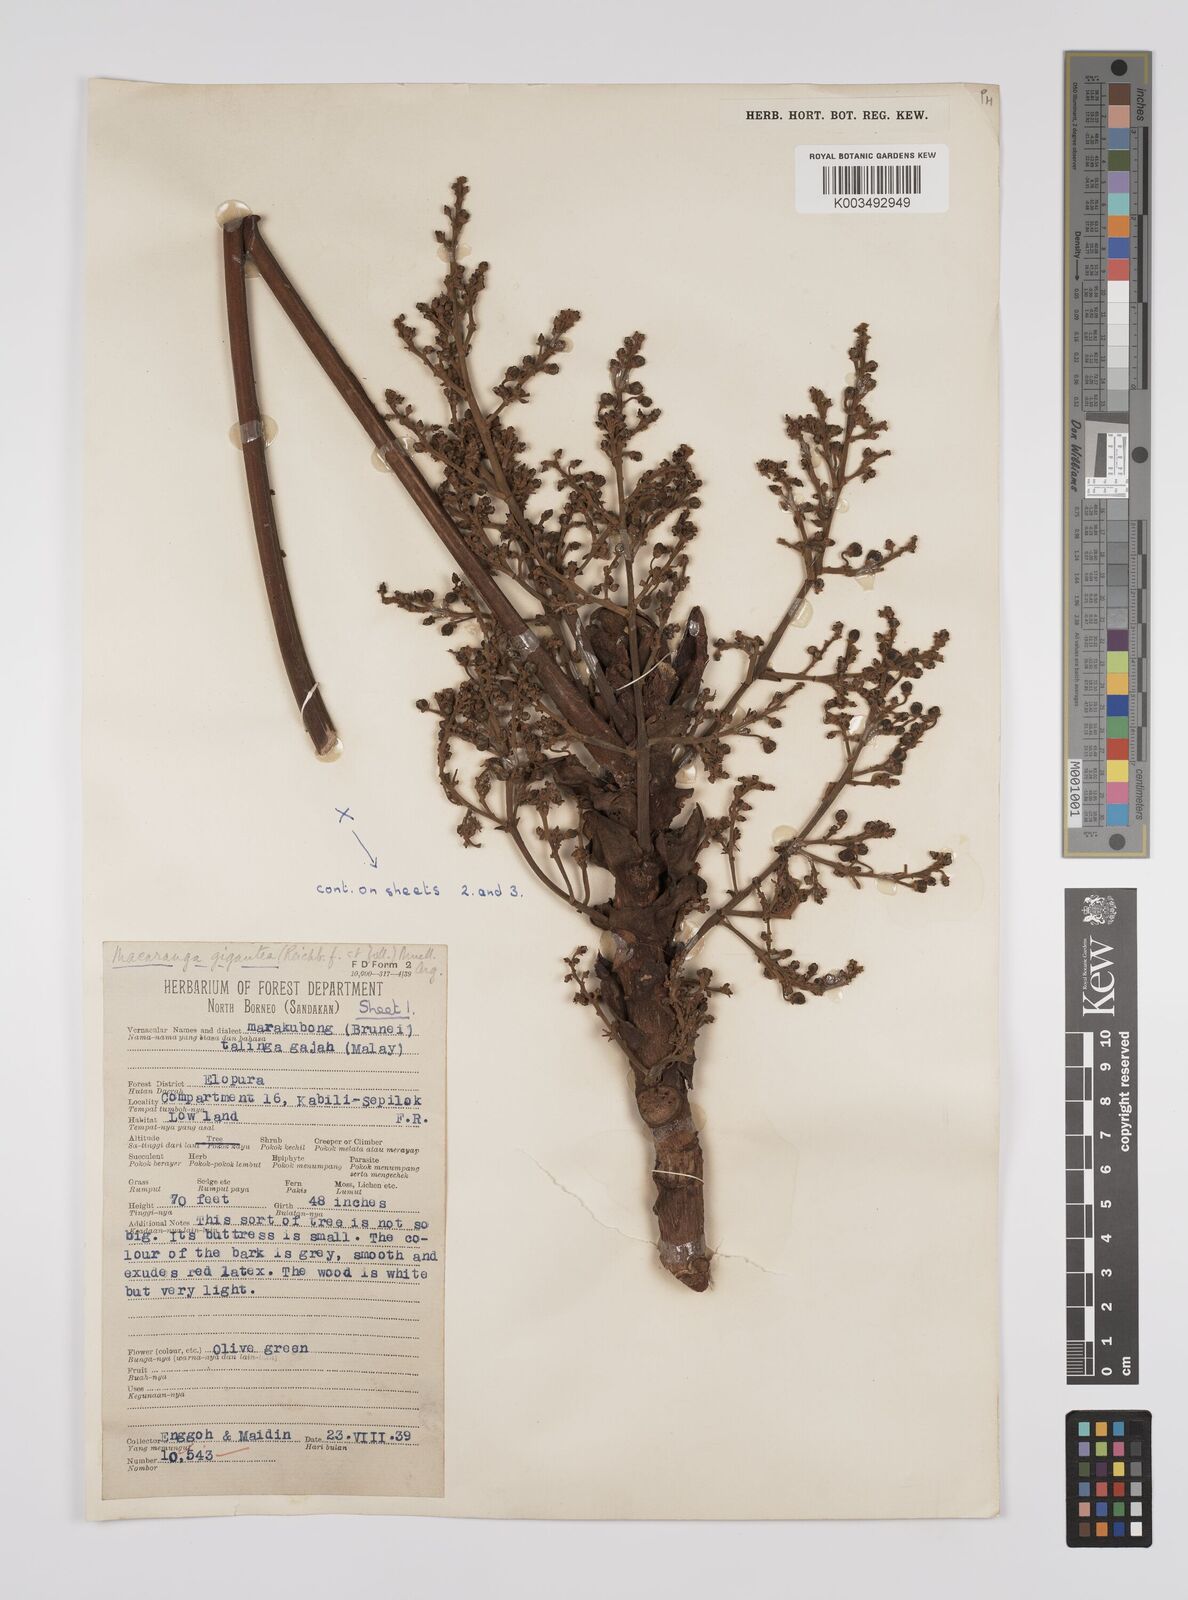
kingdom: Plantae
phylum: Tracheophyta
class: Magnoliopsida
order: Malpighiales
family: Euphorbiaceae
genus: Macaranga
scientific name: Macaranga gigantea
